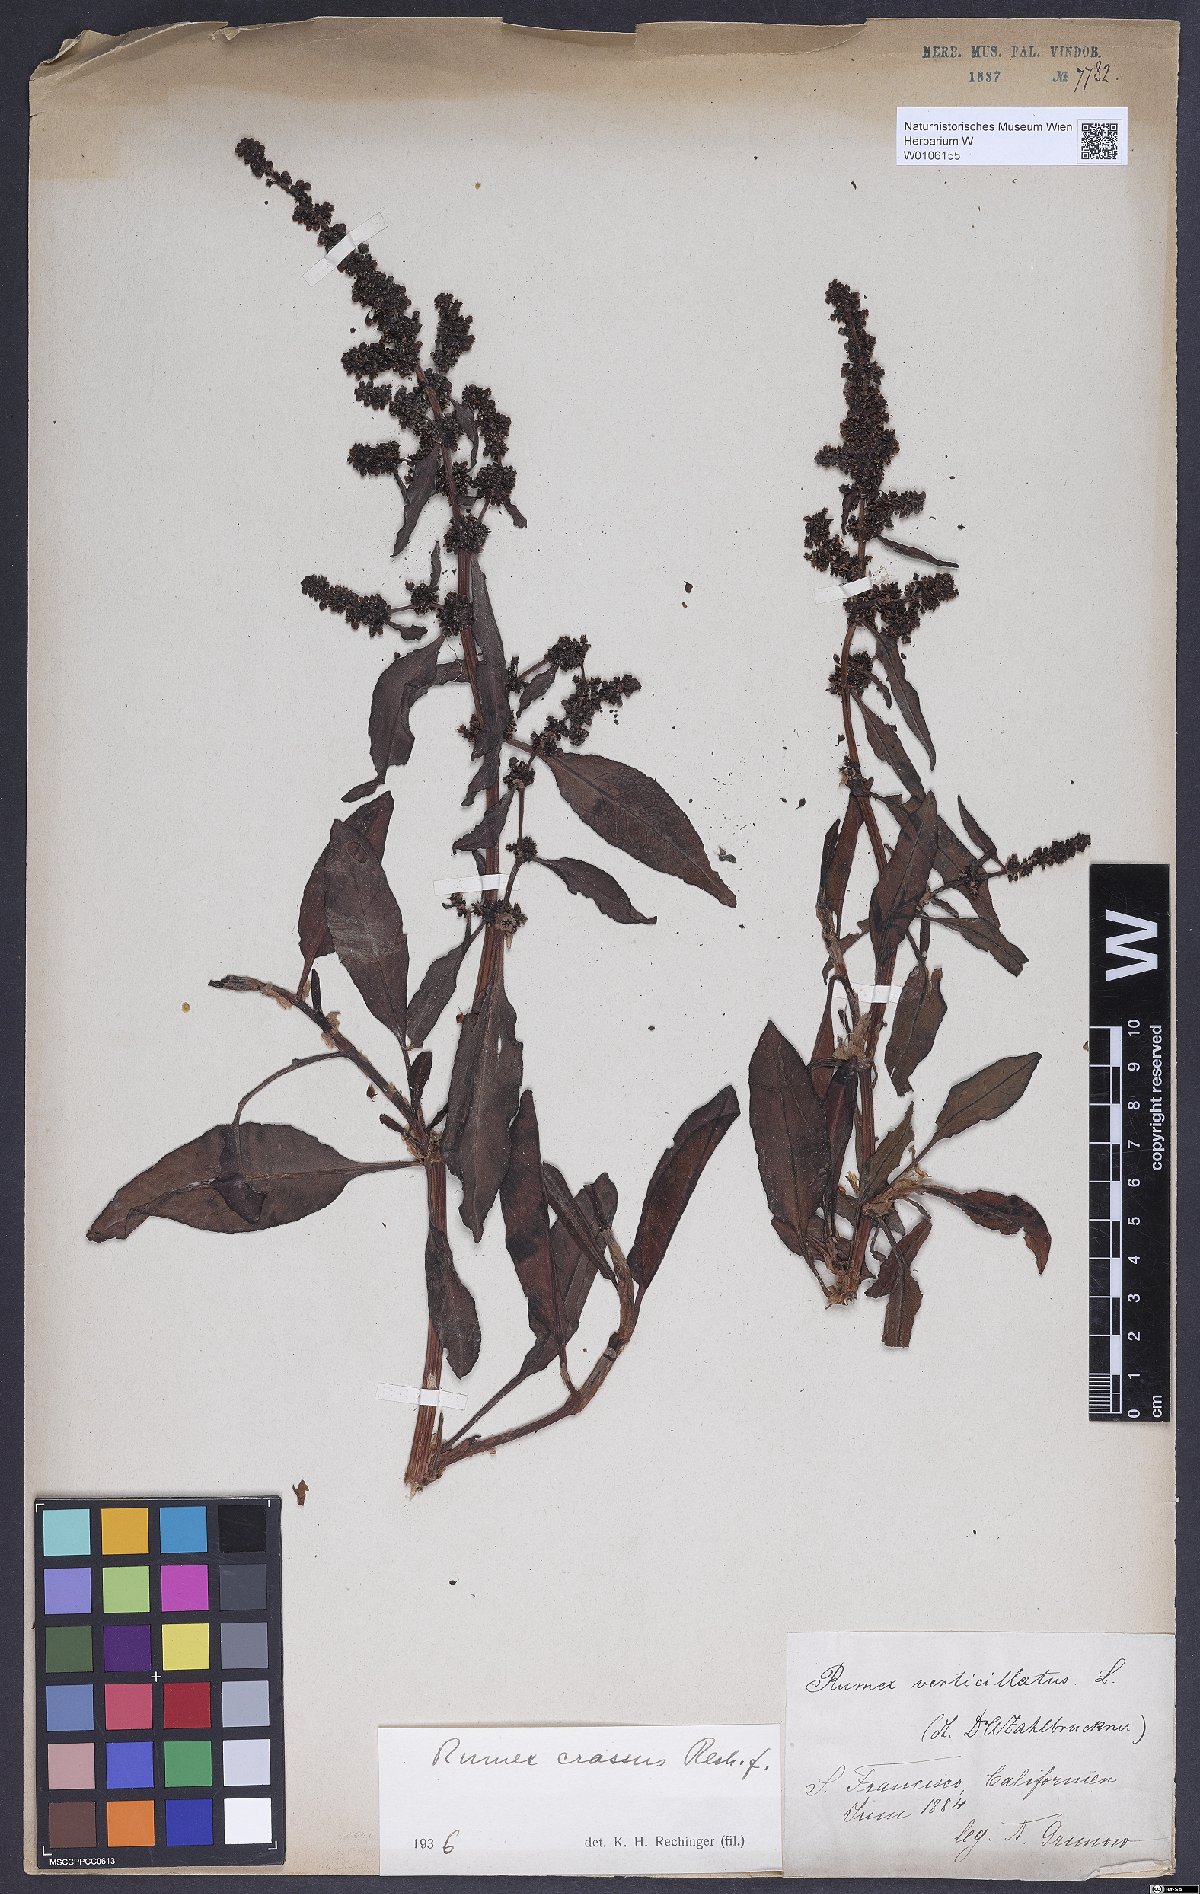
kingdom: Plantae
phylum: Tracheophyta
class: Magnoliopsida
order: Caryophyllales
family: Polygonaceae
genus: Rumex
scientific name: Rumex crassus
